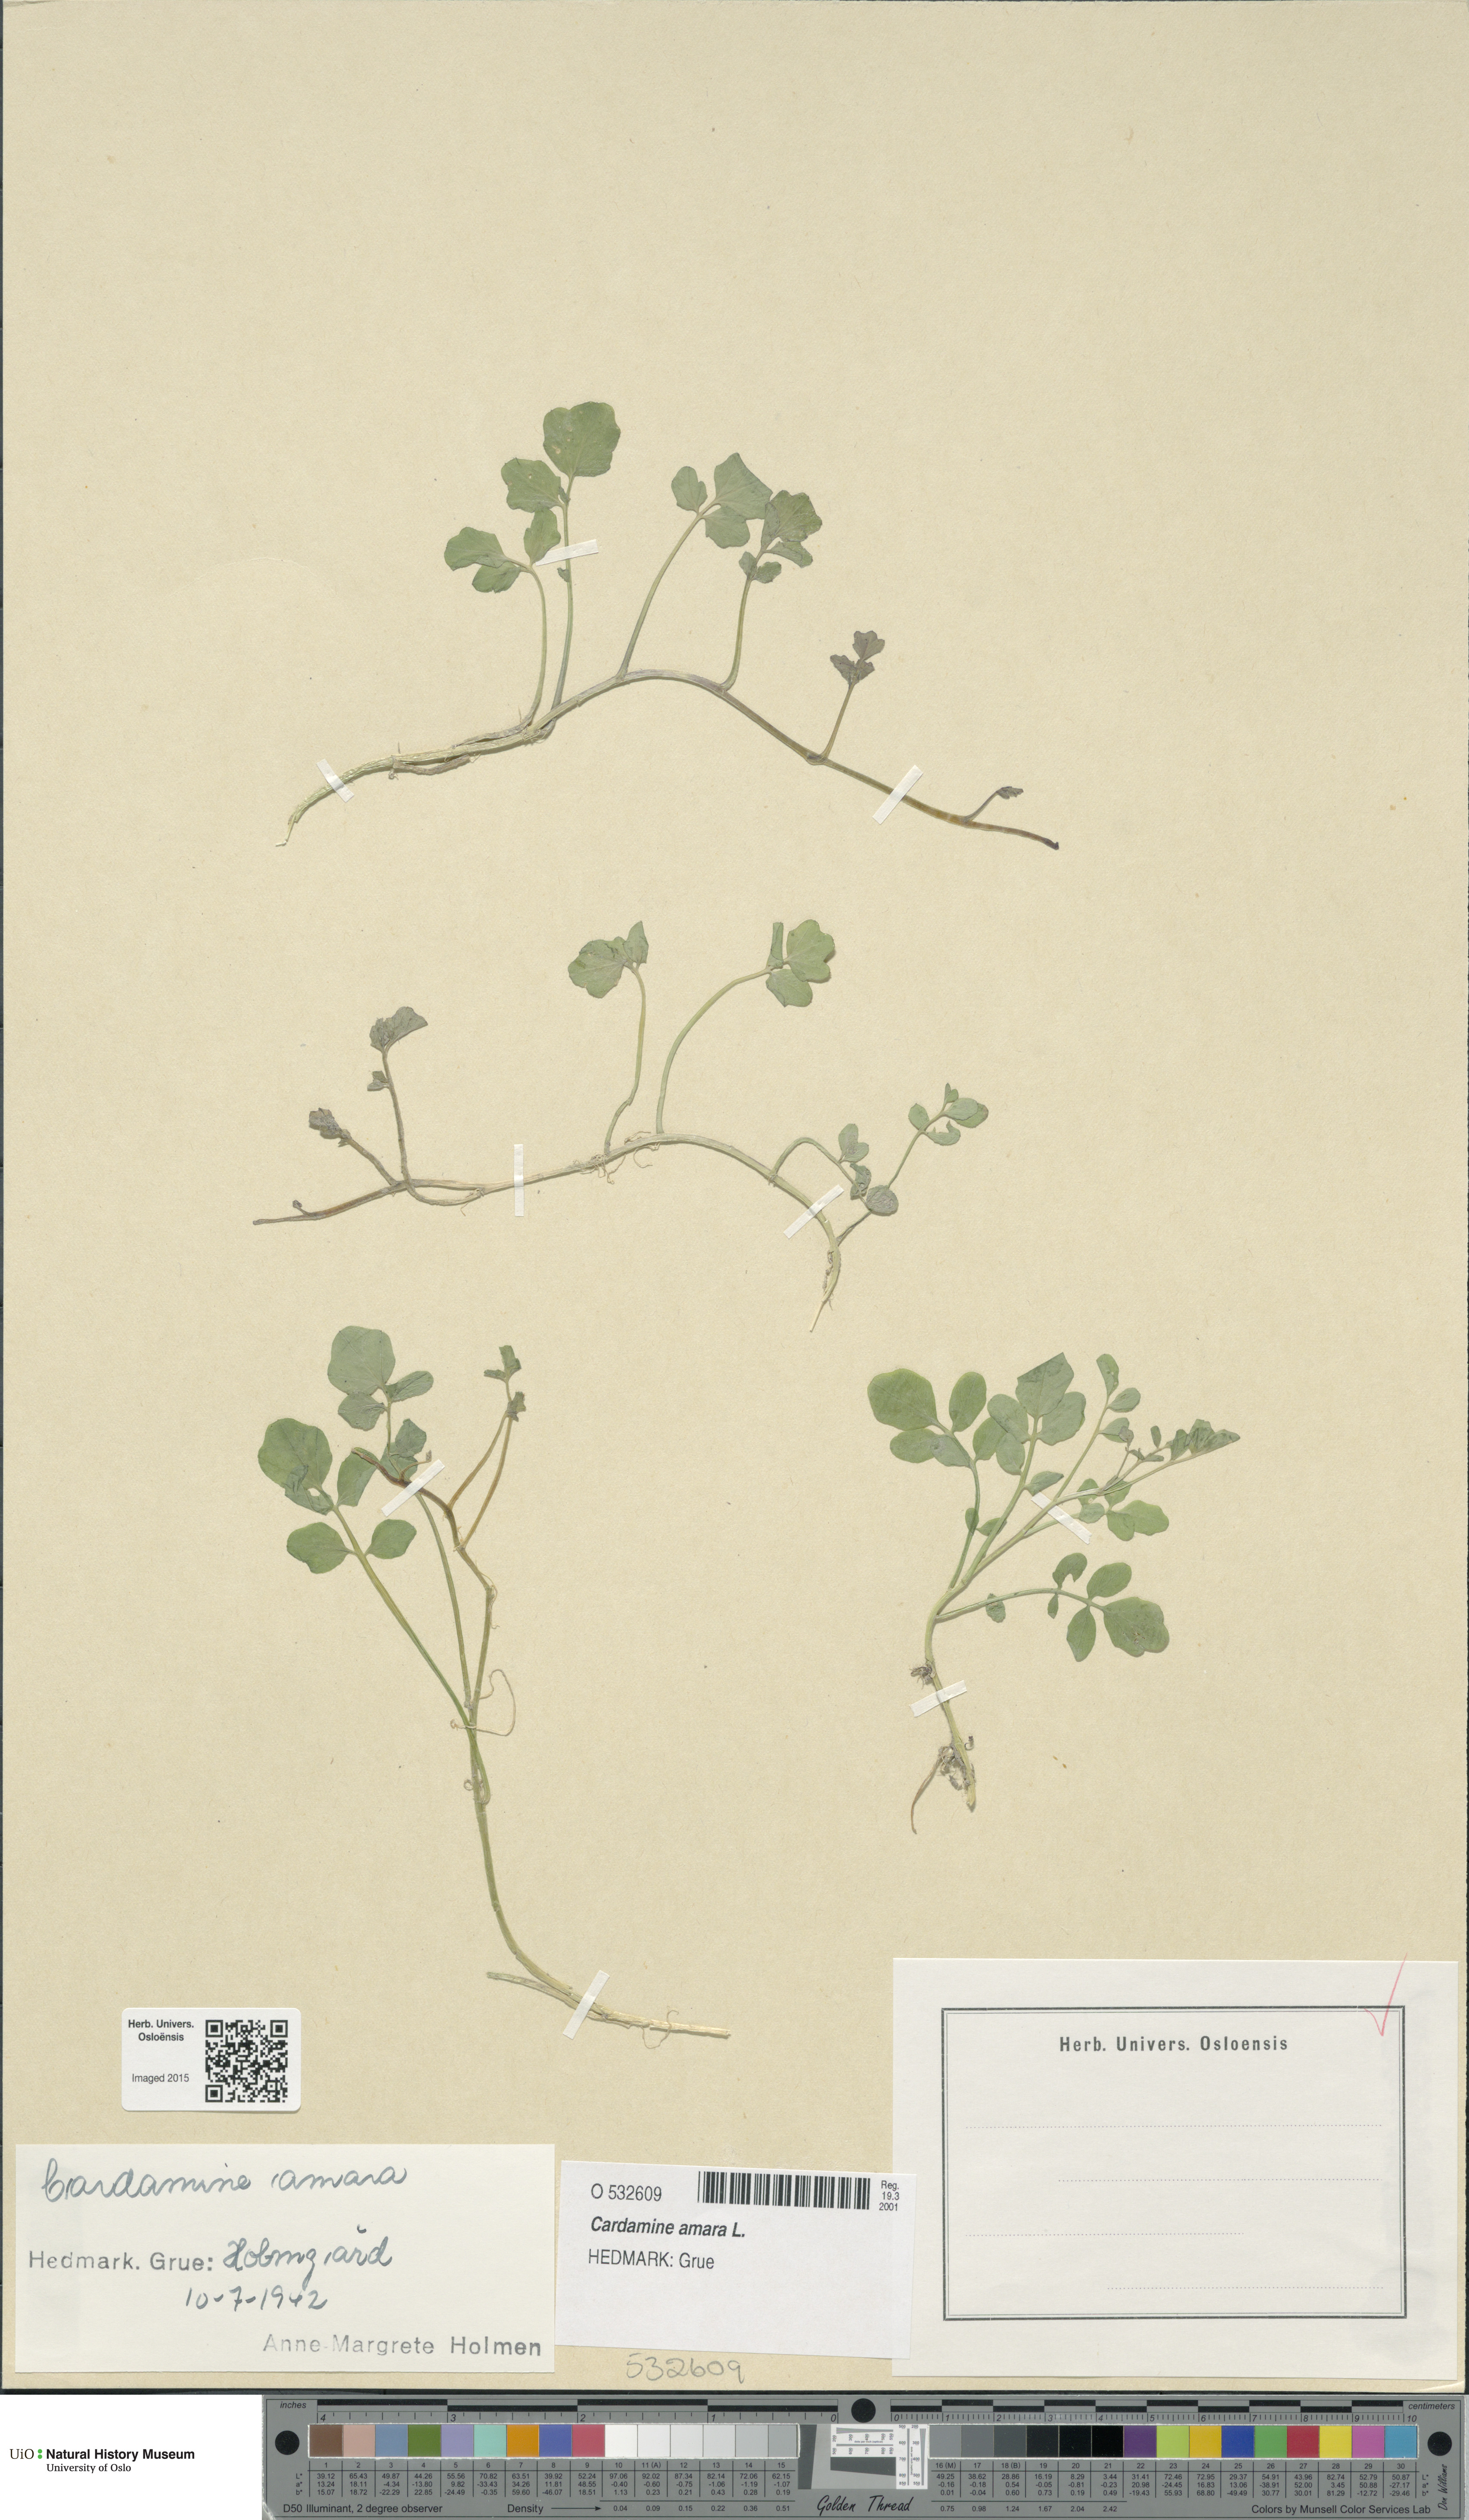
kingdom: Plantae
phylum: Tracheophyta
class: Magnoliopsida
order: Brassicales
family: Brassicaceae
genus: Cardamine
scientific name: Cardamine amara
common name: Large bitter-cress
